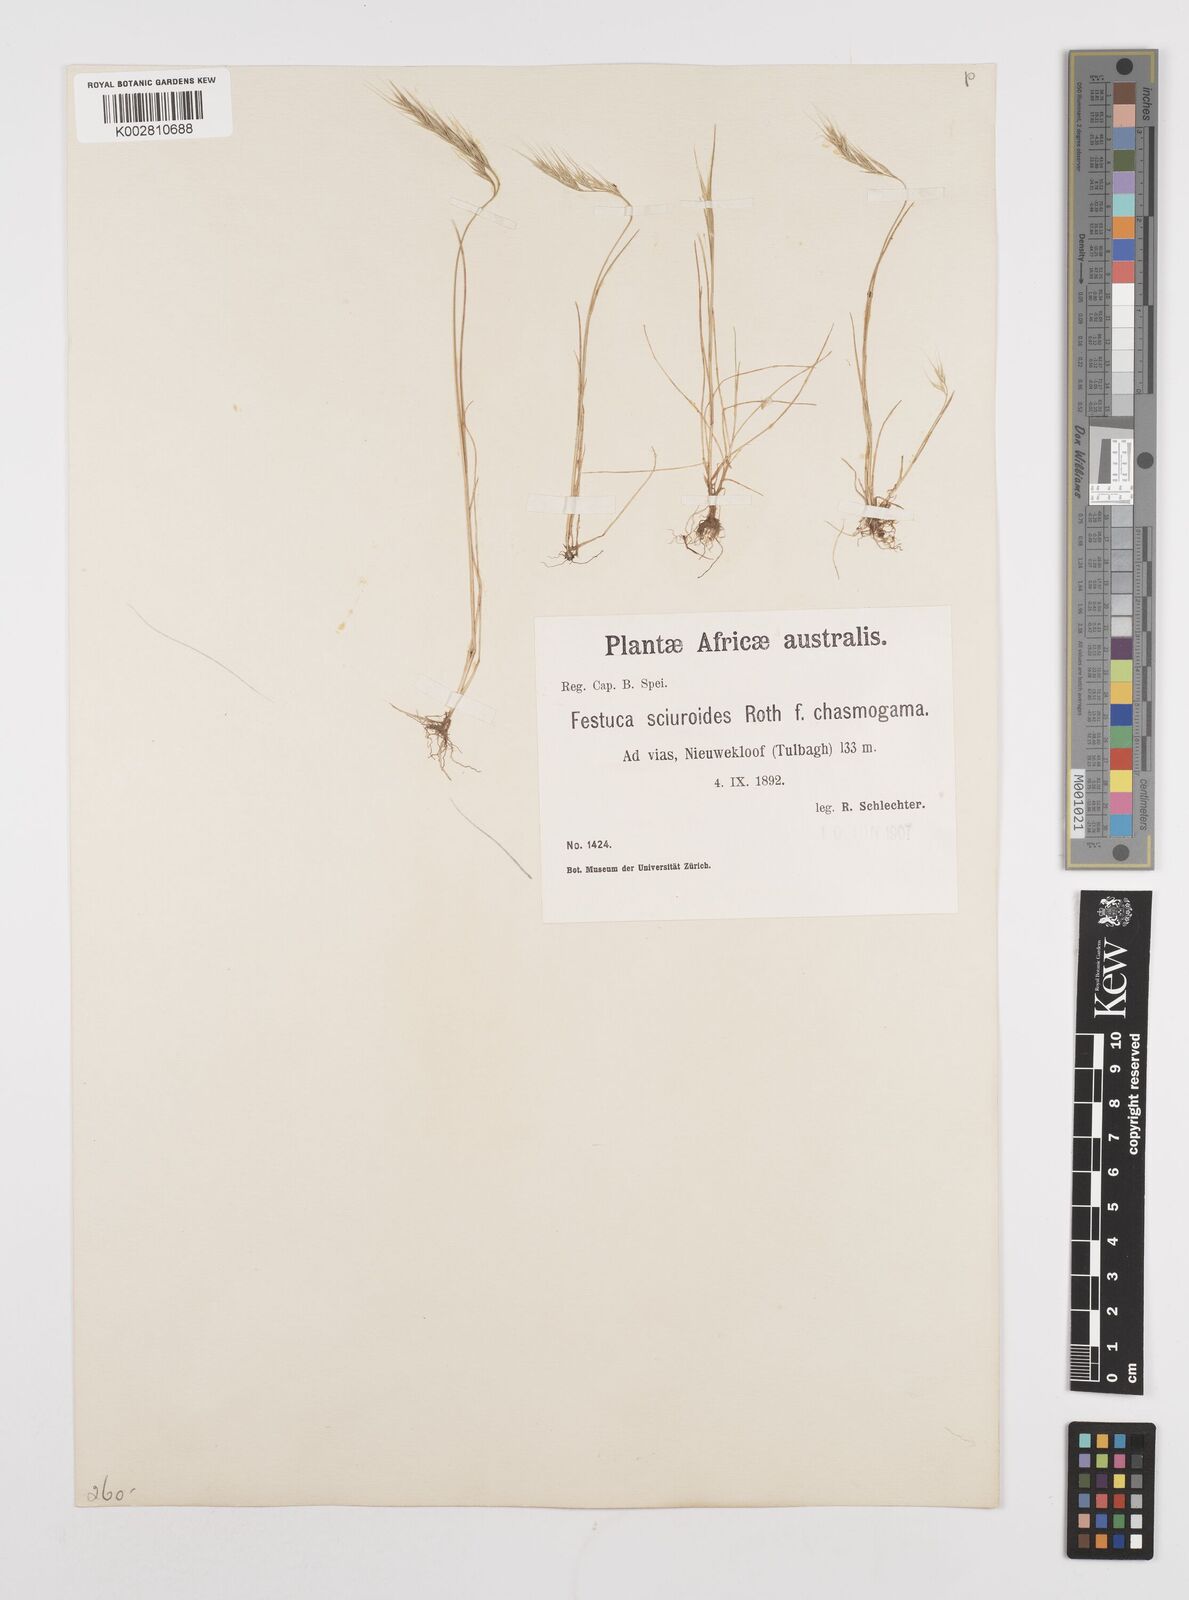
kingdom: Plantae
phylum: Tracheophyta
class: Liliopsida
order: Poales
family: Poaceae
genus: Festuca
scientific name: Festuca bromoides
